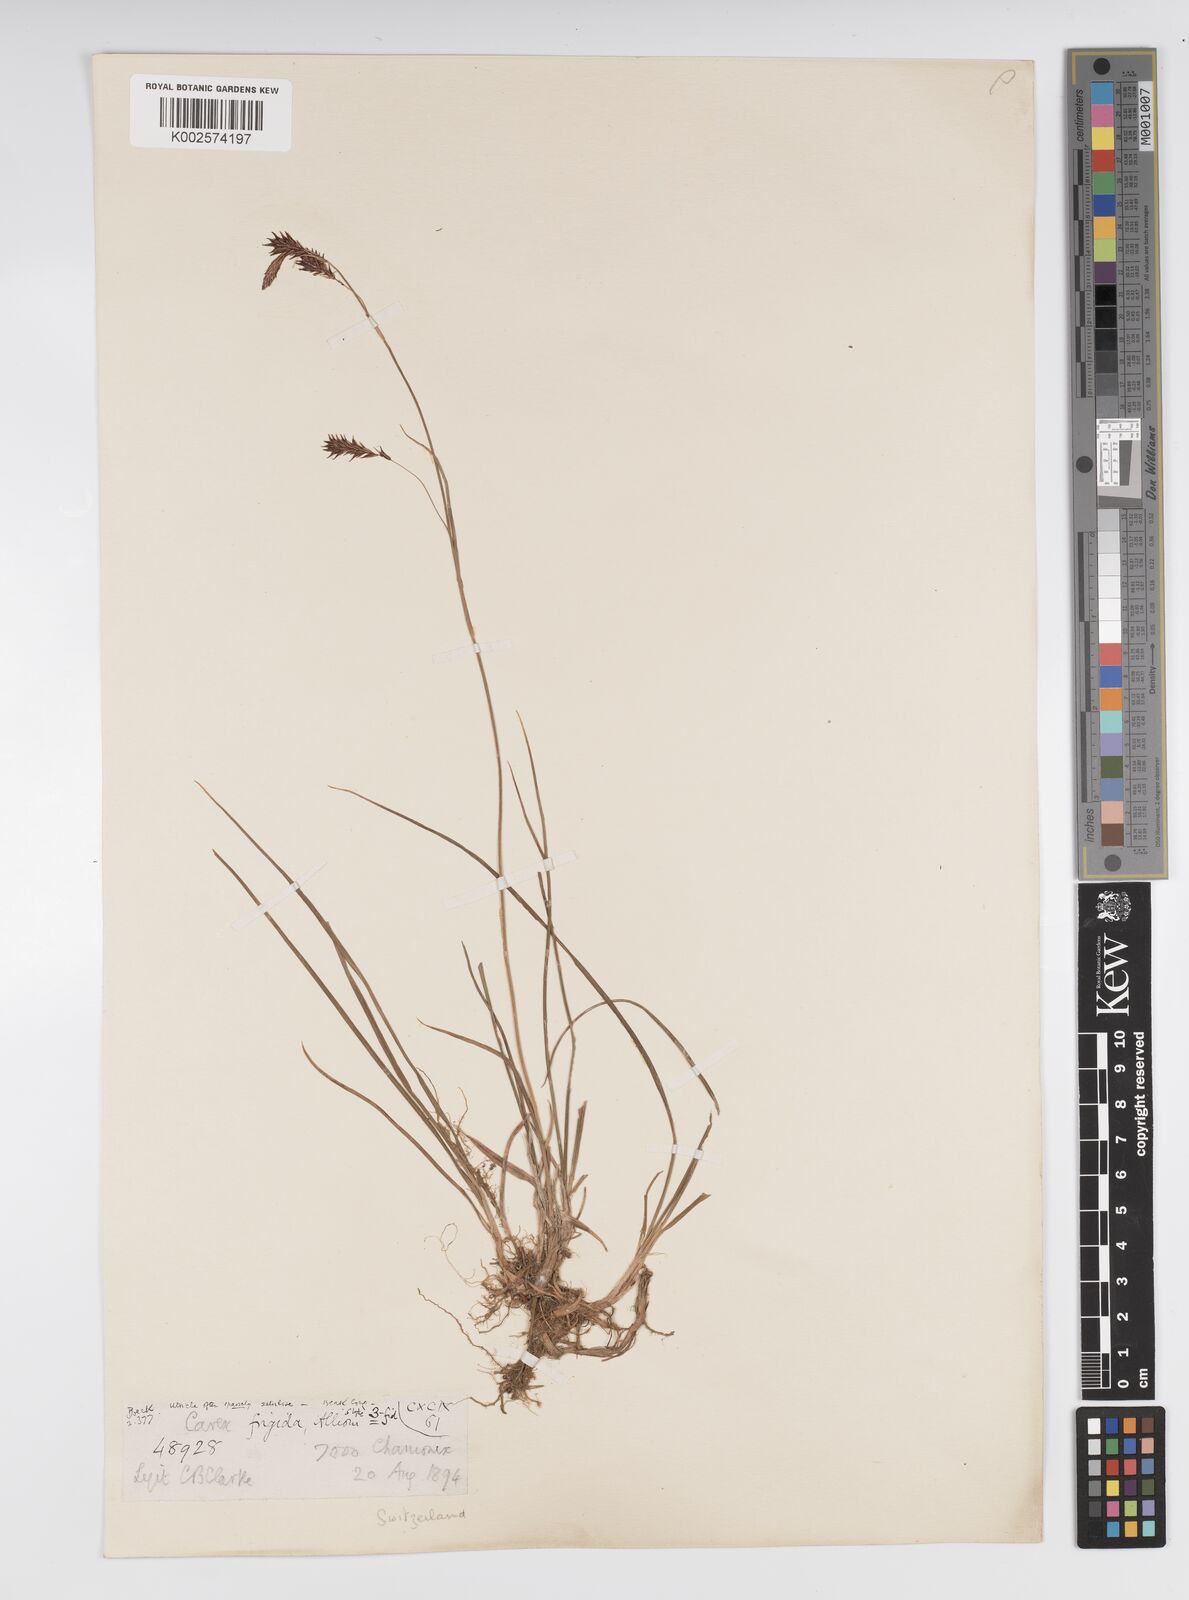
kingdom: Plantae
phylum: Tracheophyta
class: Liliopsida
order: Poales
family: Cyperaceae
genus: Carex
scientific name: Carex frigida
